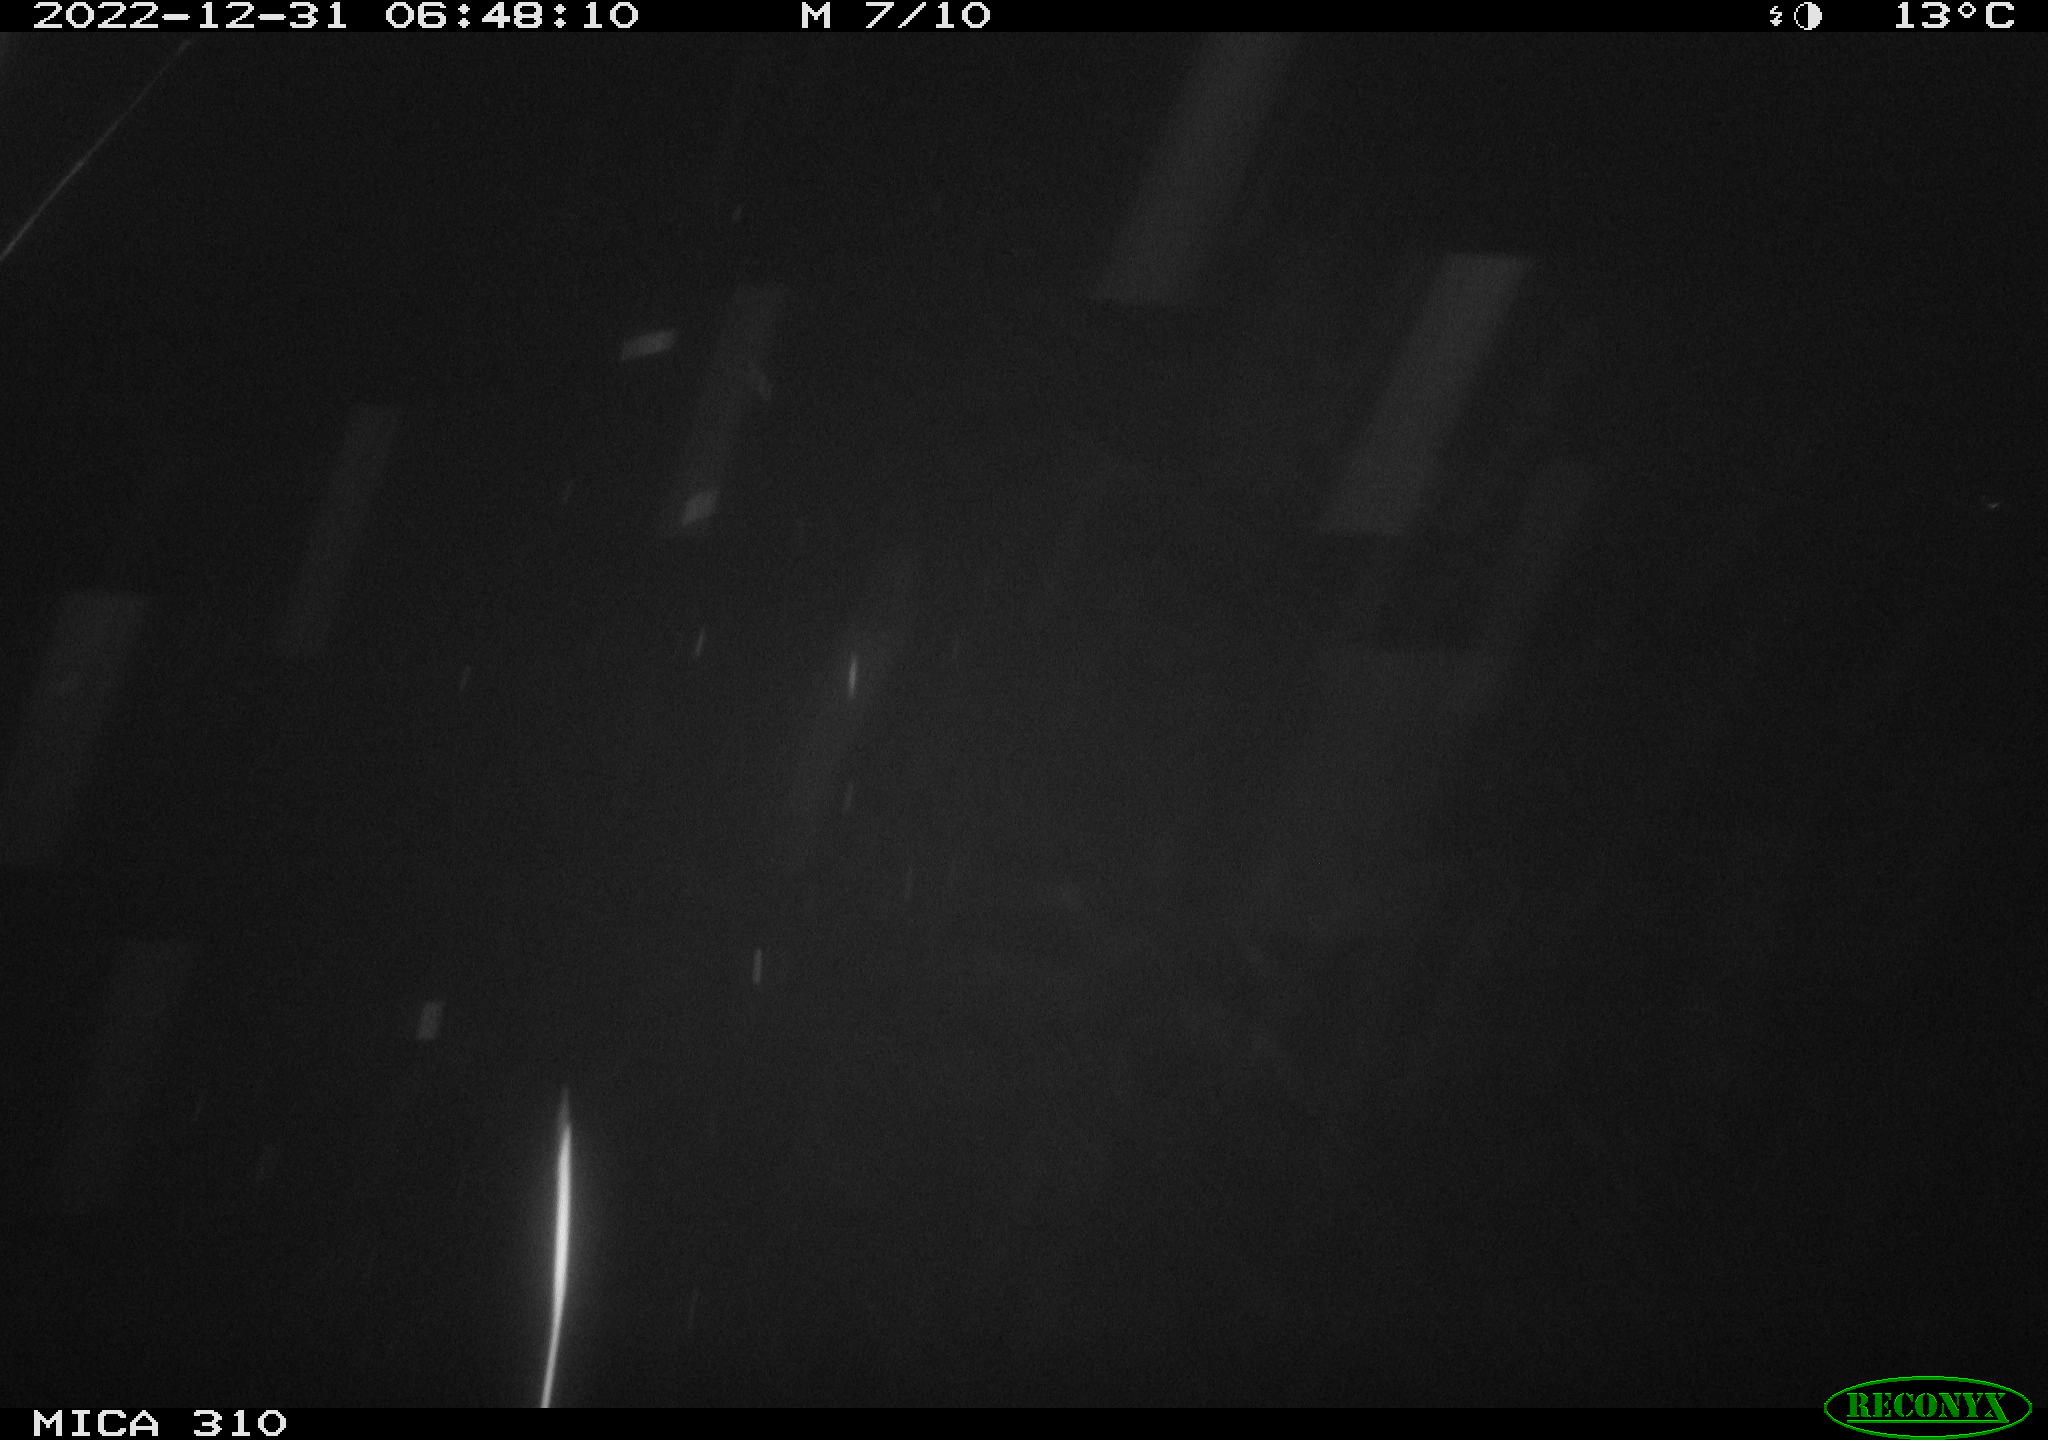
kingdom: Animalia
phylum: Chordata
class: Mammalia
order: Rodentia
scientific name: Rodentia
